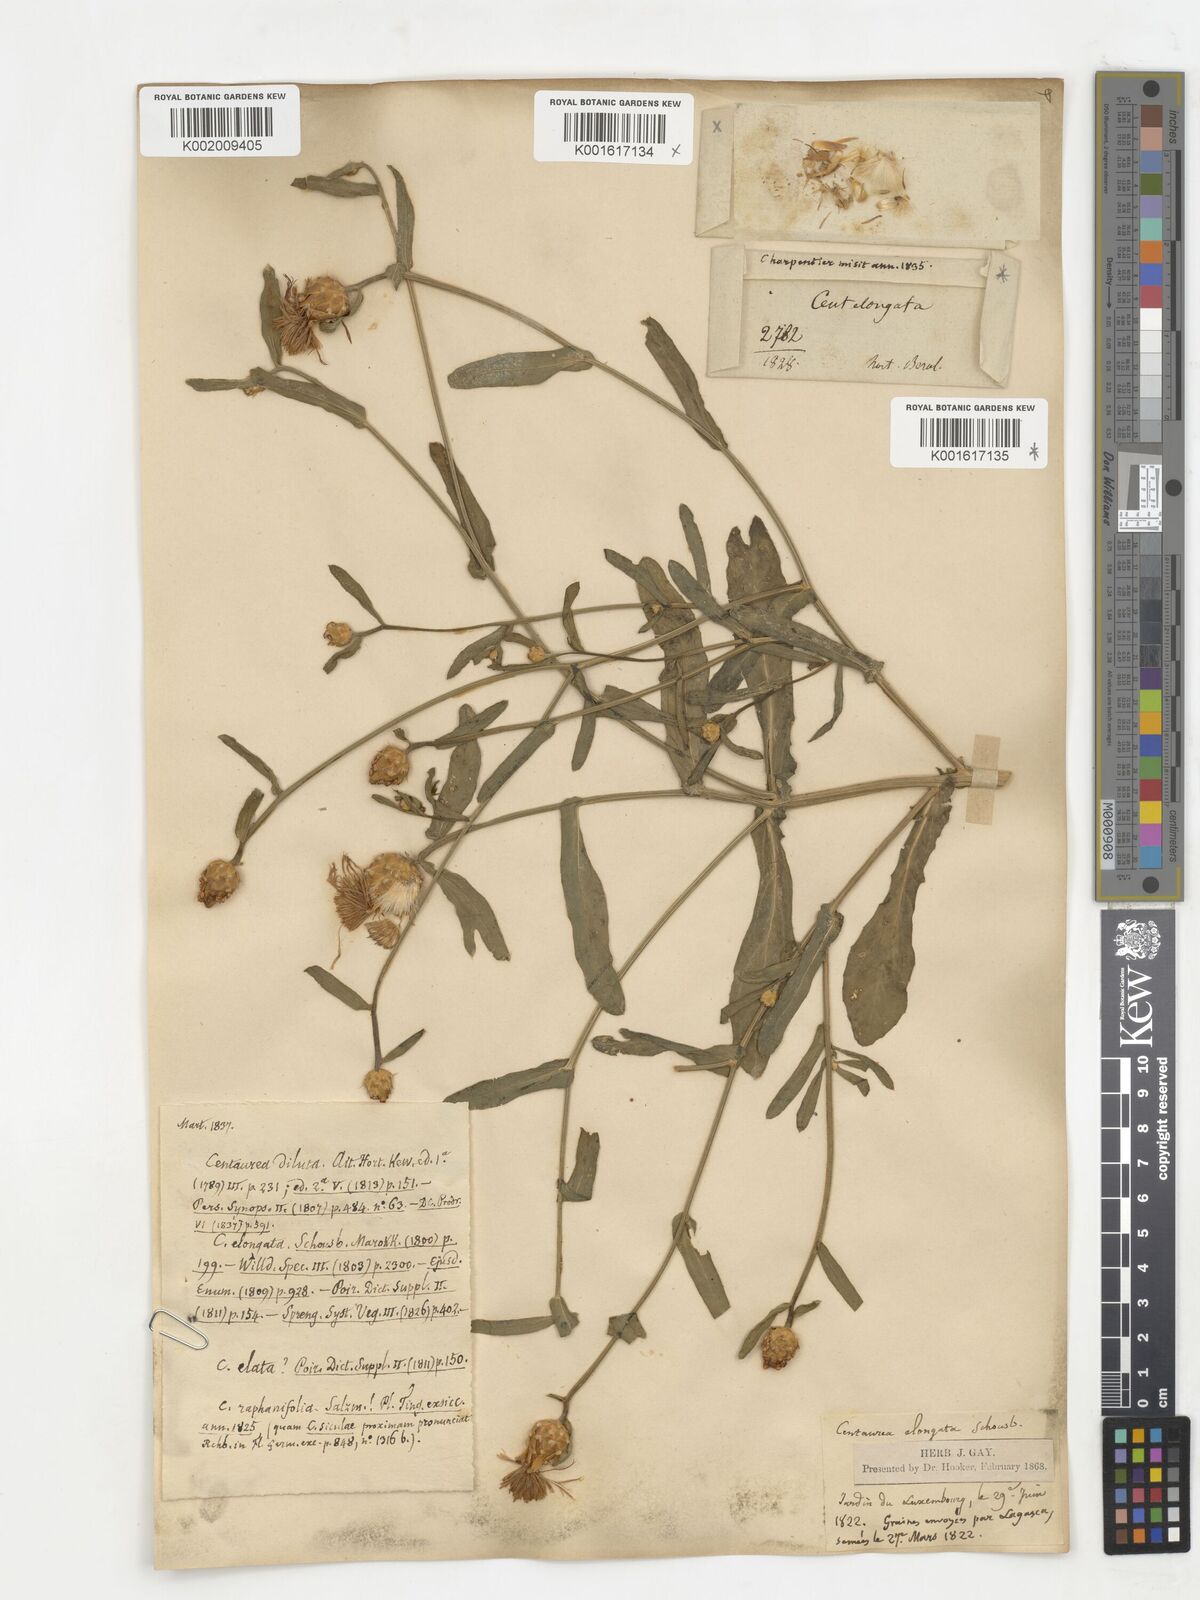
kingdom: Plantae
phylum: Tracheophyta
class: Magnoliopsida
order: Asterales
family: Asteraceae
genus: Centaurea
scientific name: Centaurea diluta
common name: Lesser star-thistle
